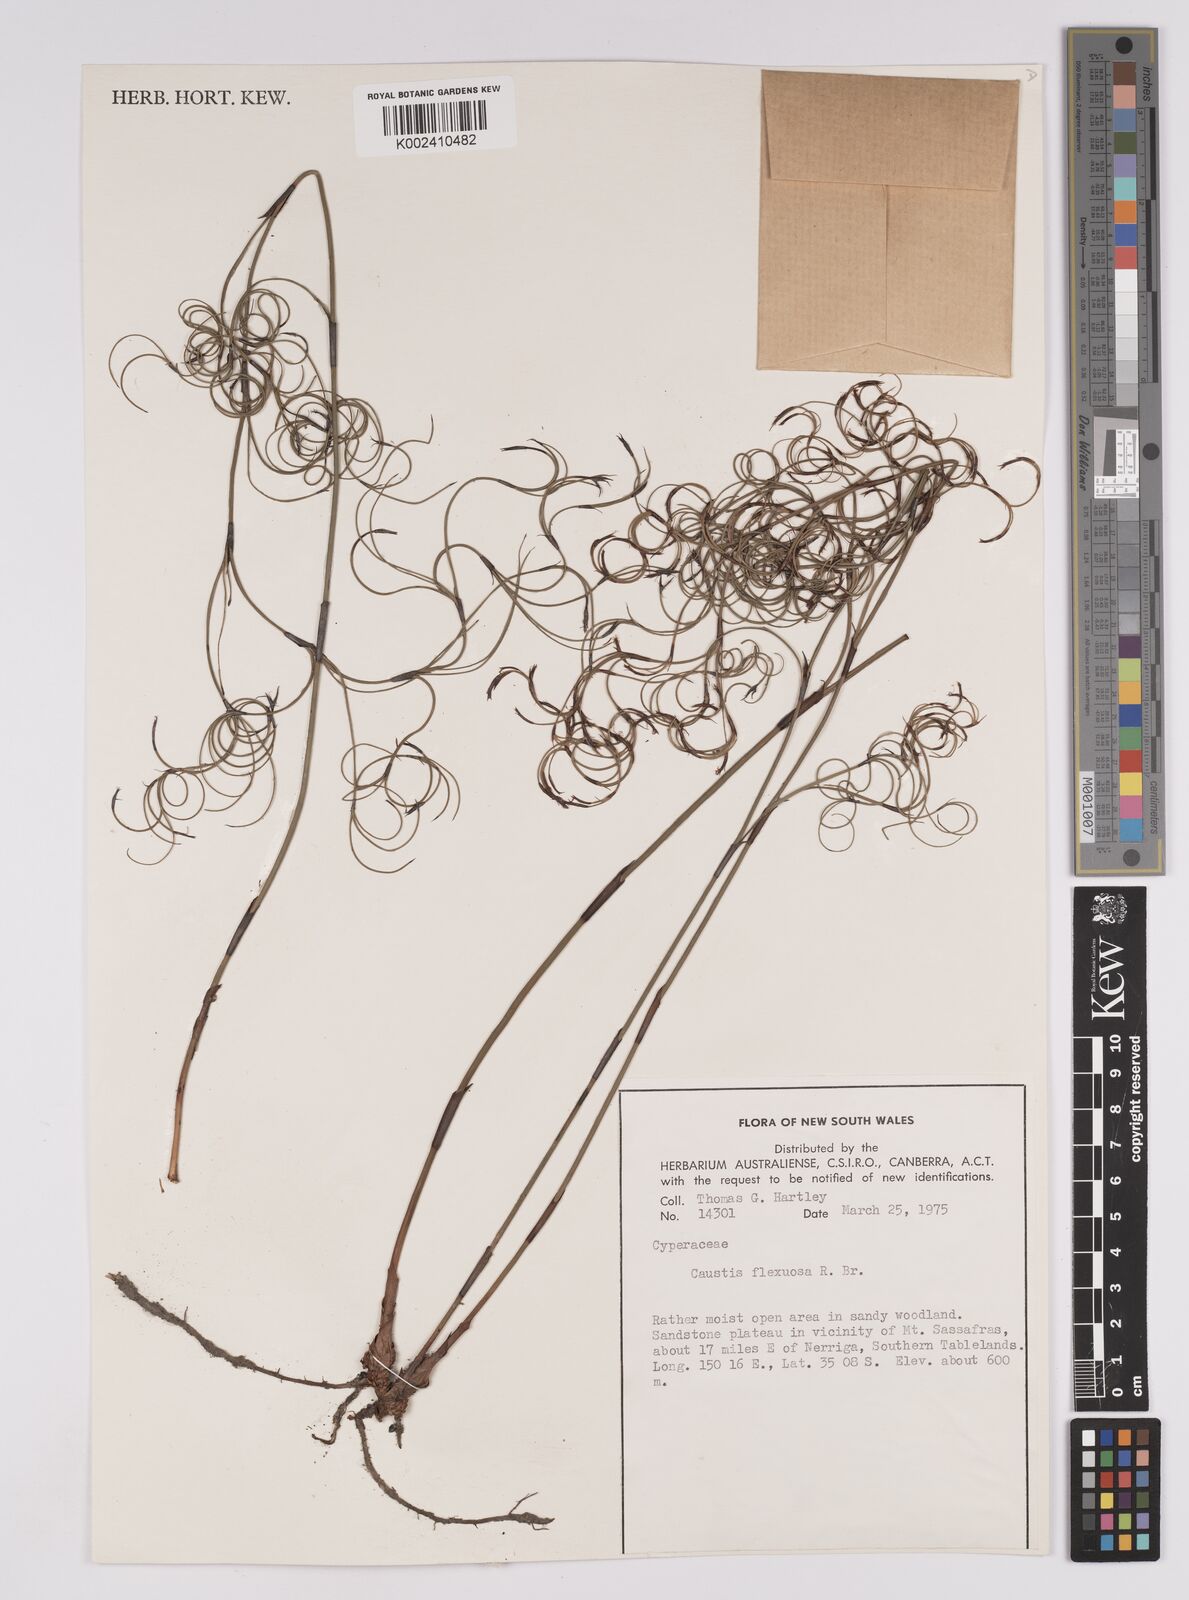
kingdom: Plantae
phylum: Tracheophyta
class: Liliopsida
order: Poales
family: Cyperaceae
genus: Caustis
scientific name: Caustis flexuosa
